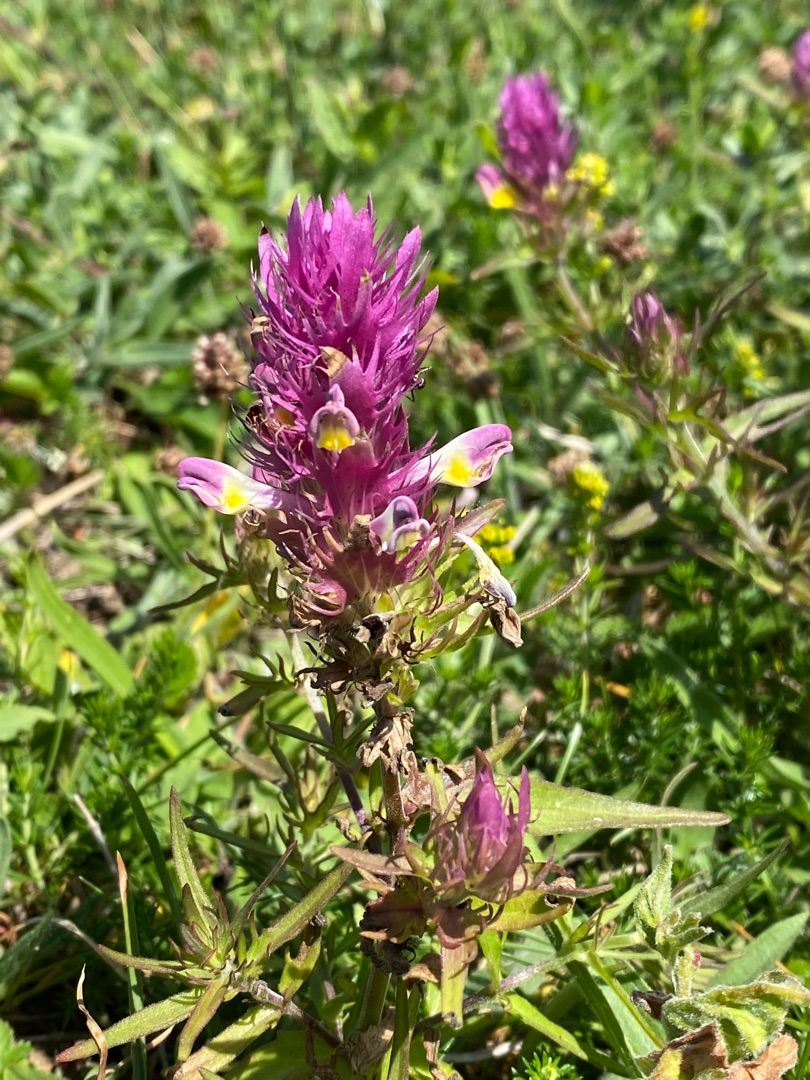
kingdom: Plantae
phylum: Tracheophyta
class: Magnoliopsida
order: Lamiales
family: Orobanchaceae
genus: Melampyrum
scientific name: Melampyrum arvense
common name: Ager-kohvede
